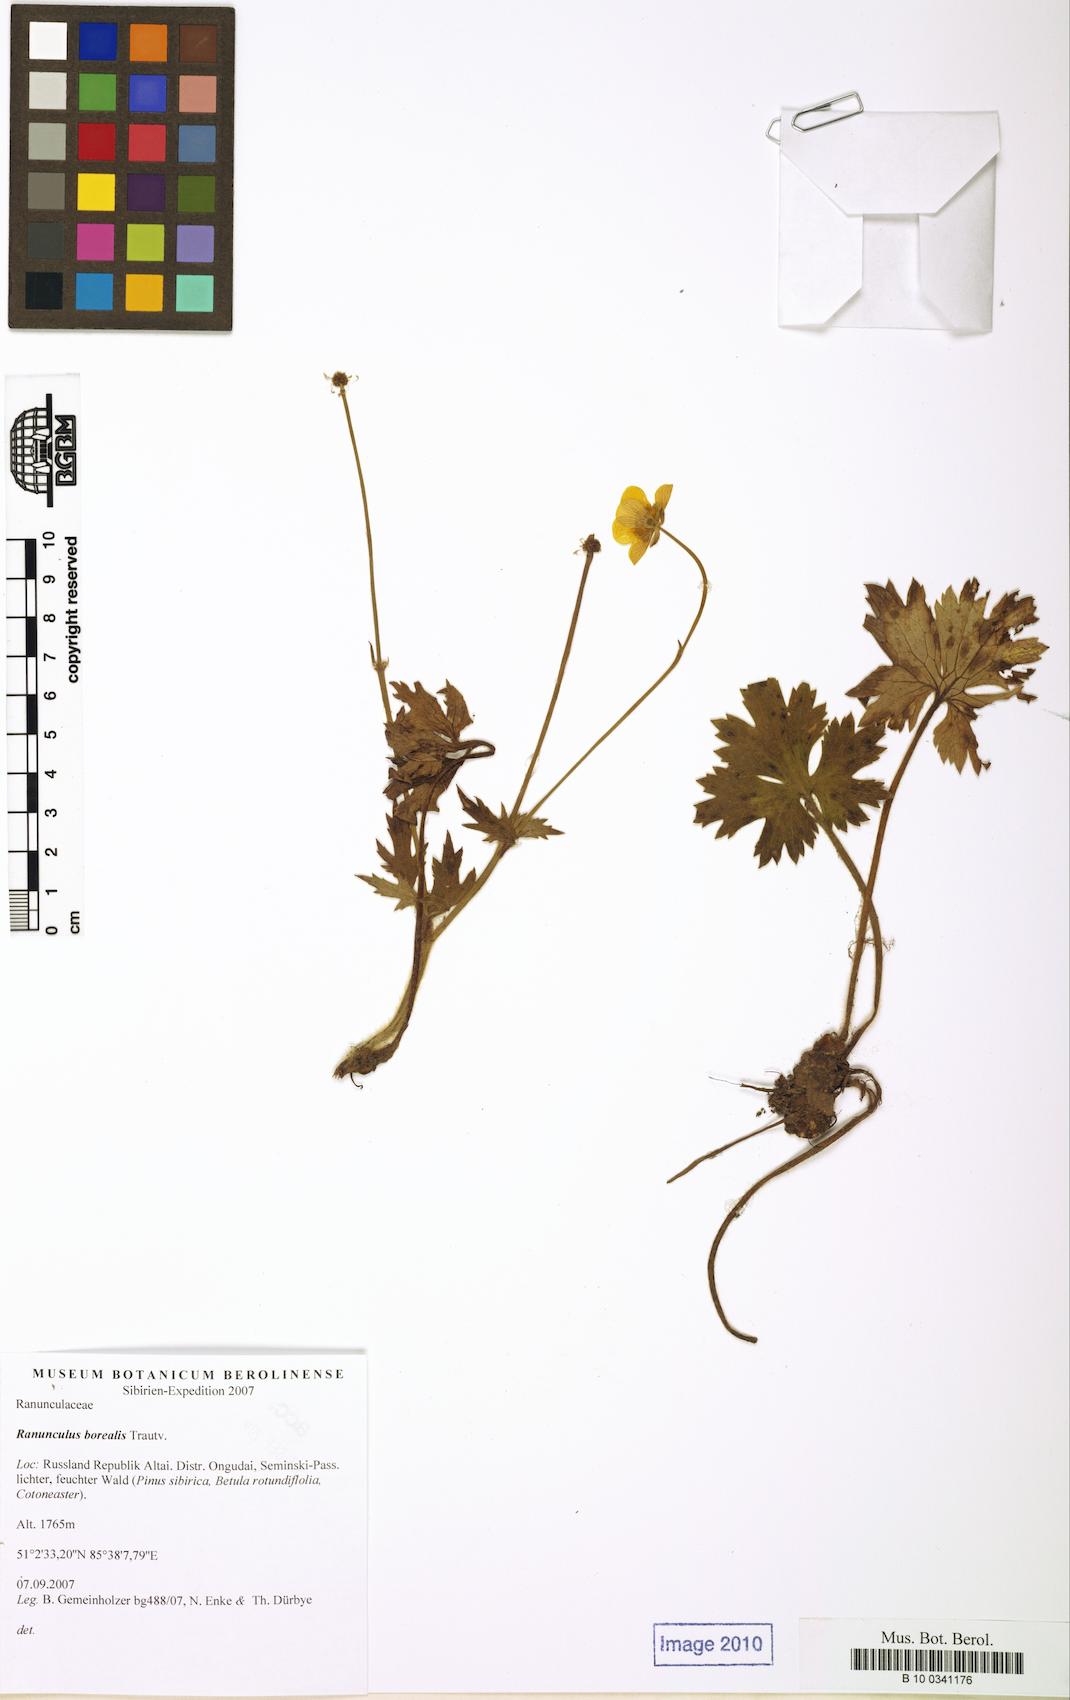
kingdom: Plantae
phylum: Tracheophyta
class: Magnoliopsida
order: Ranunculales
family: Ranunculaceae
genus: Ranunculus
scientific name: Ranunculus propinquus
